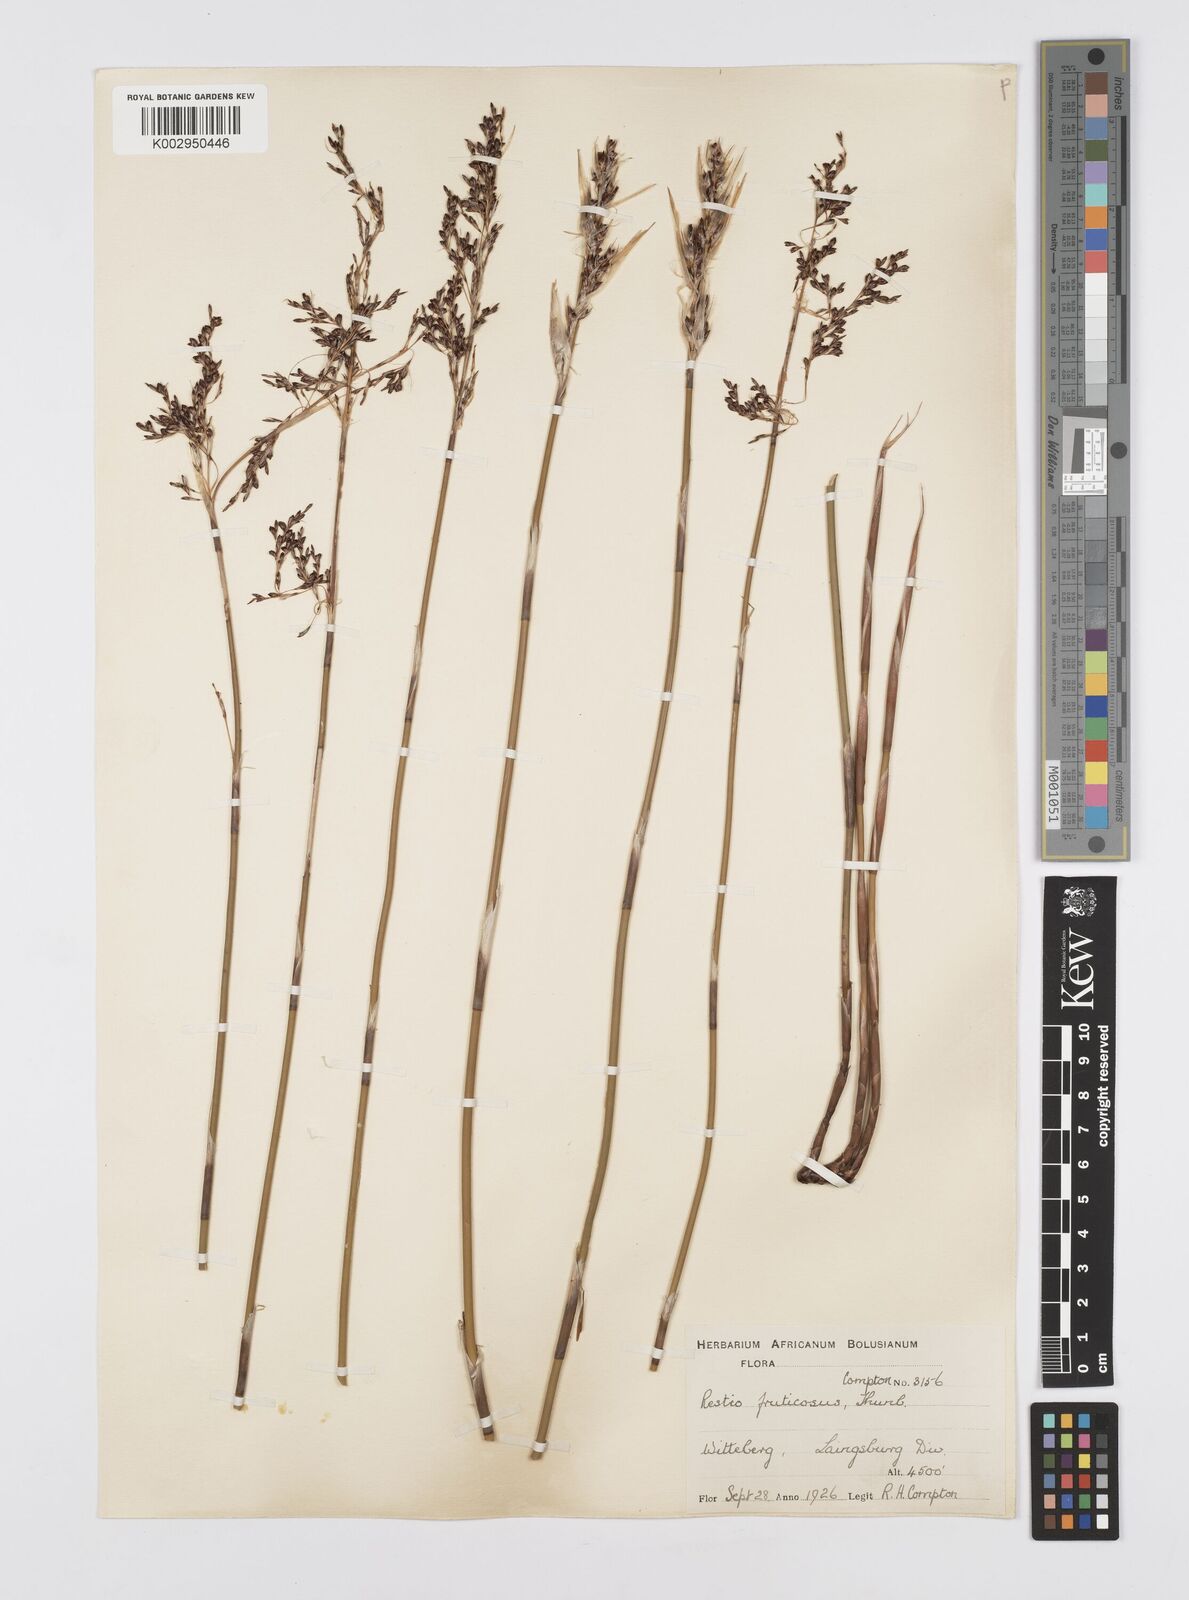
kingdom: Plantae
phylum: Tracheophyta
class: Liliopsida
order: Poales
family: Restionaceae
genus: Rhodocoma
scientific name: Rhodocoma fruticosa
